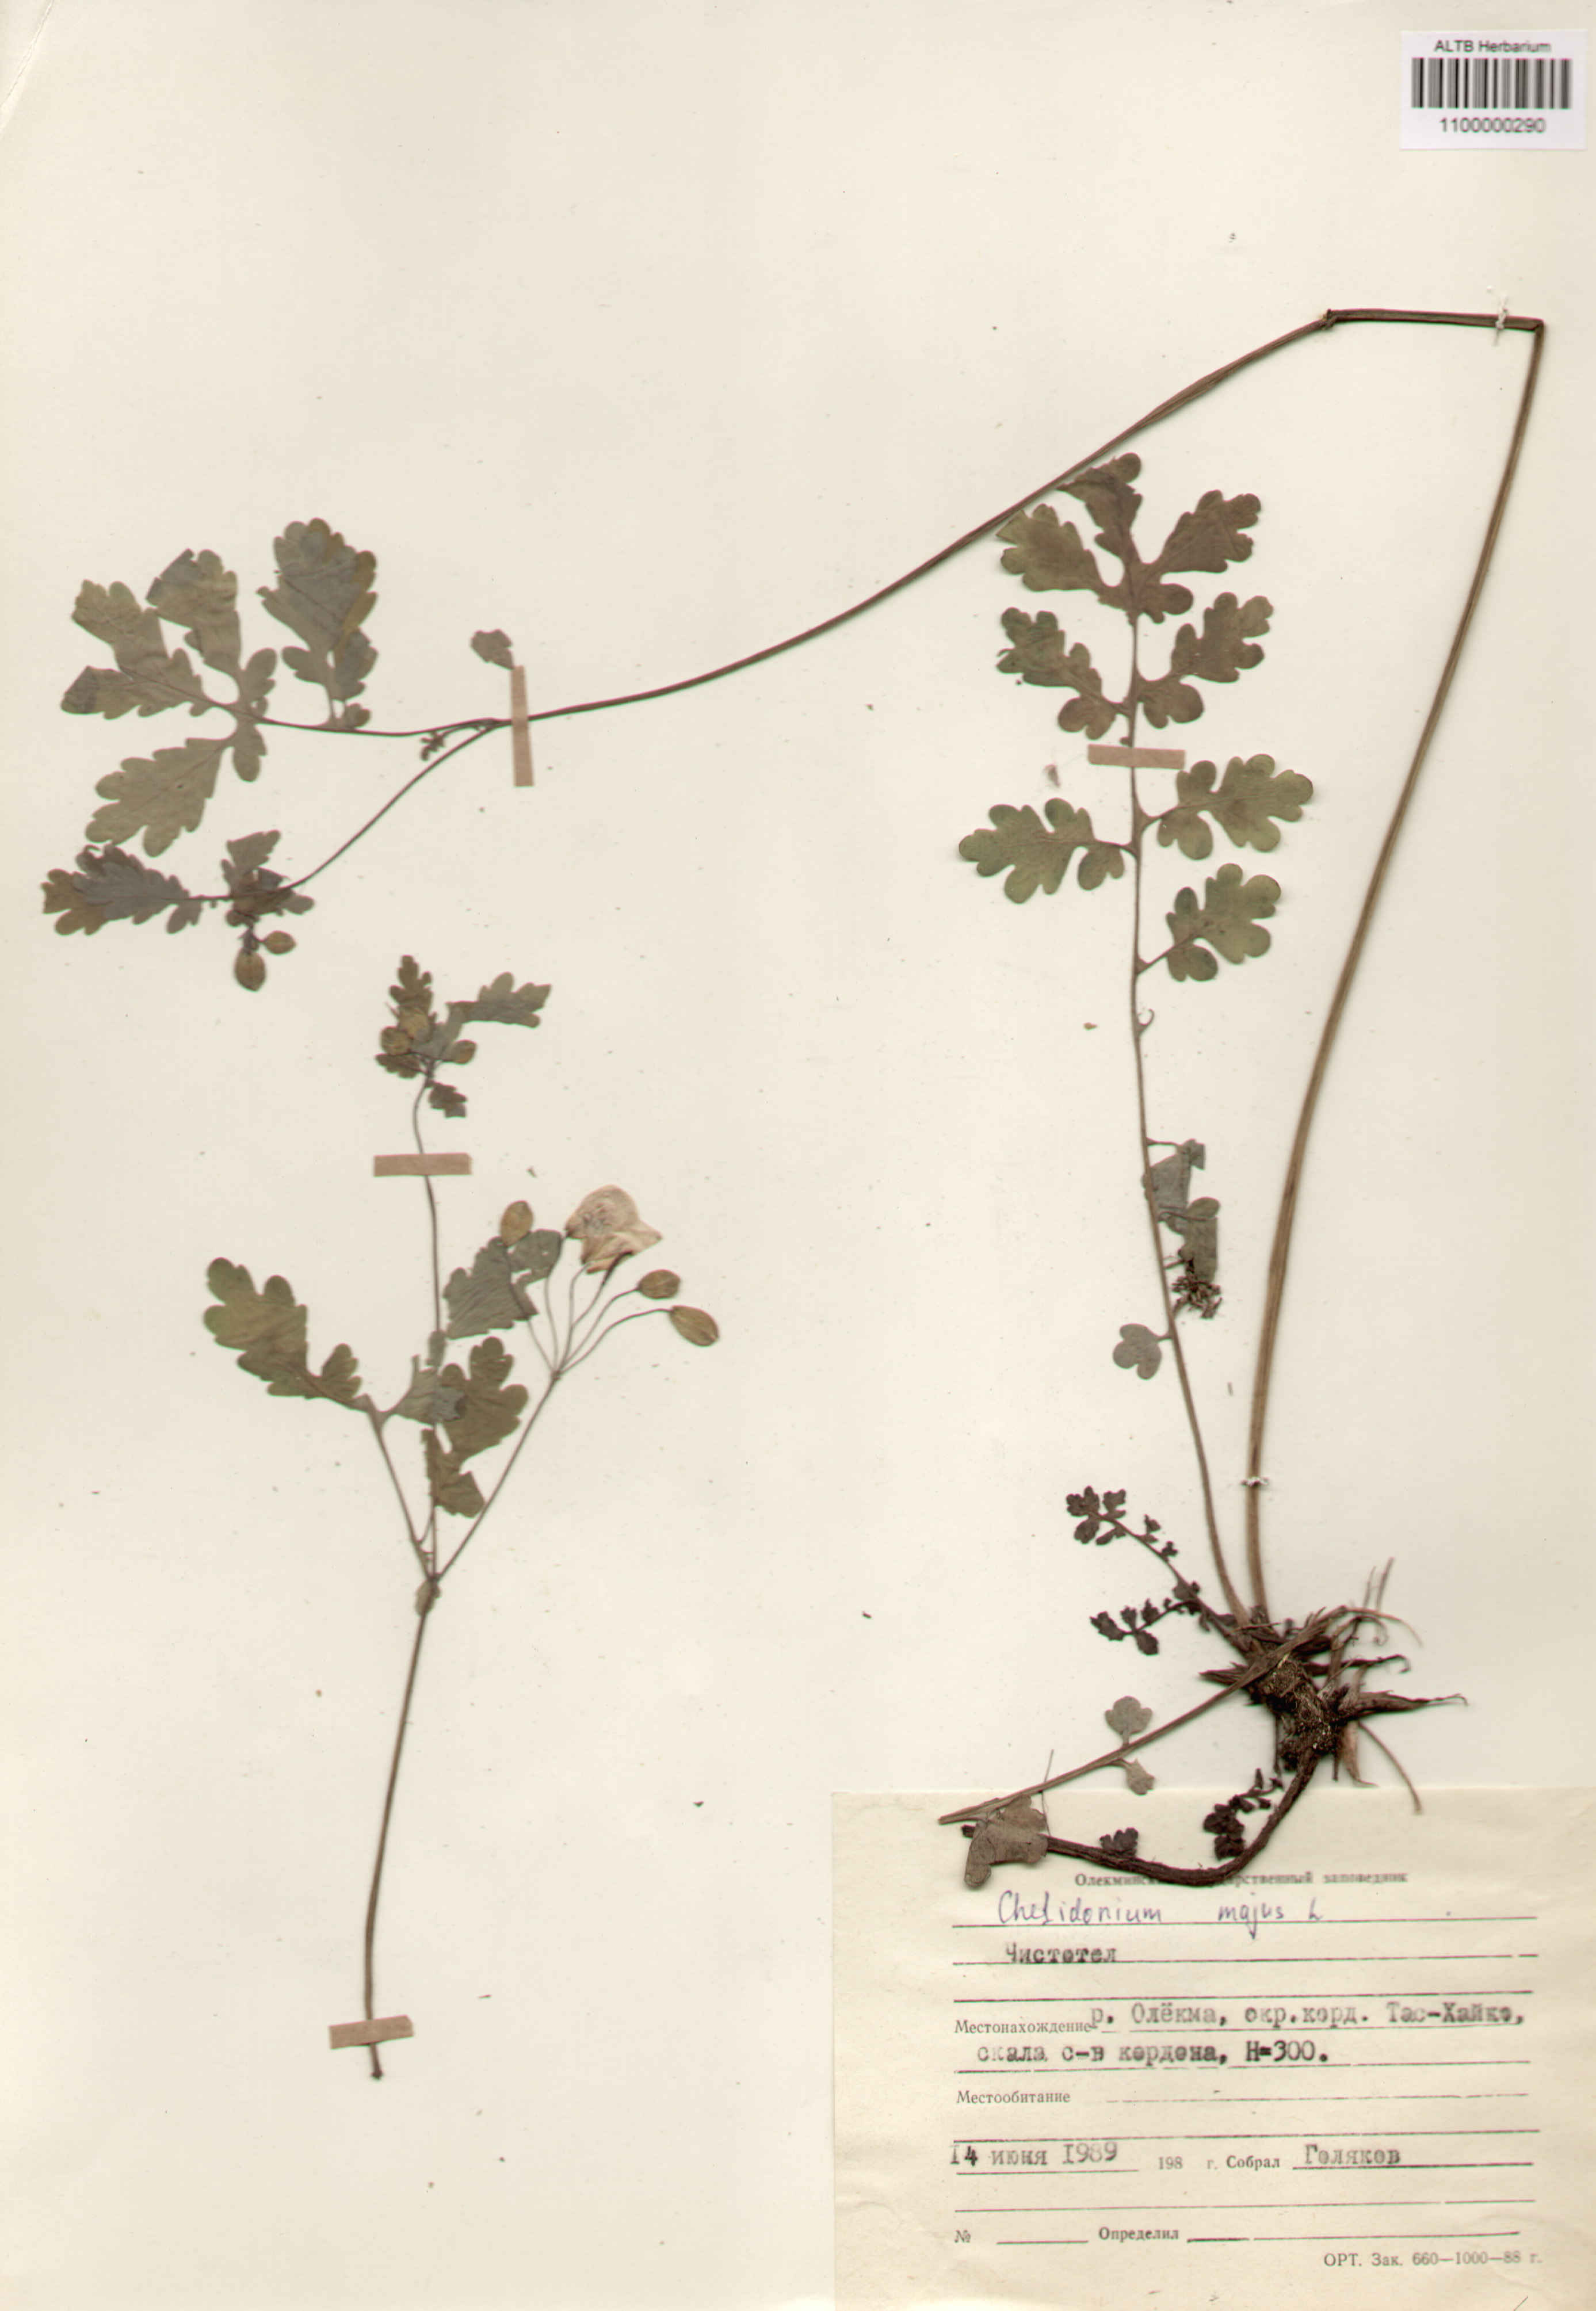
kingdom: Plantae
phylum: Tracheophyta
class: Magnoliopsida
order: Ranunculales
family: Papaveraceae
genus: Chelidonium
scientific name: Chelidonium majus
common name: Greater celandine
